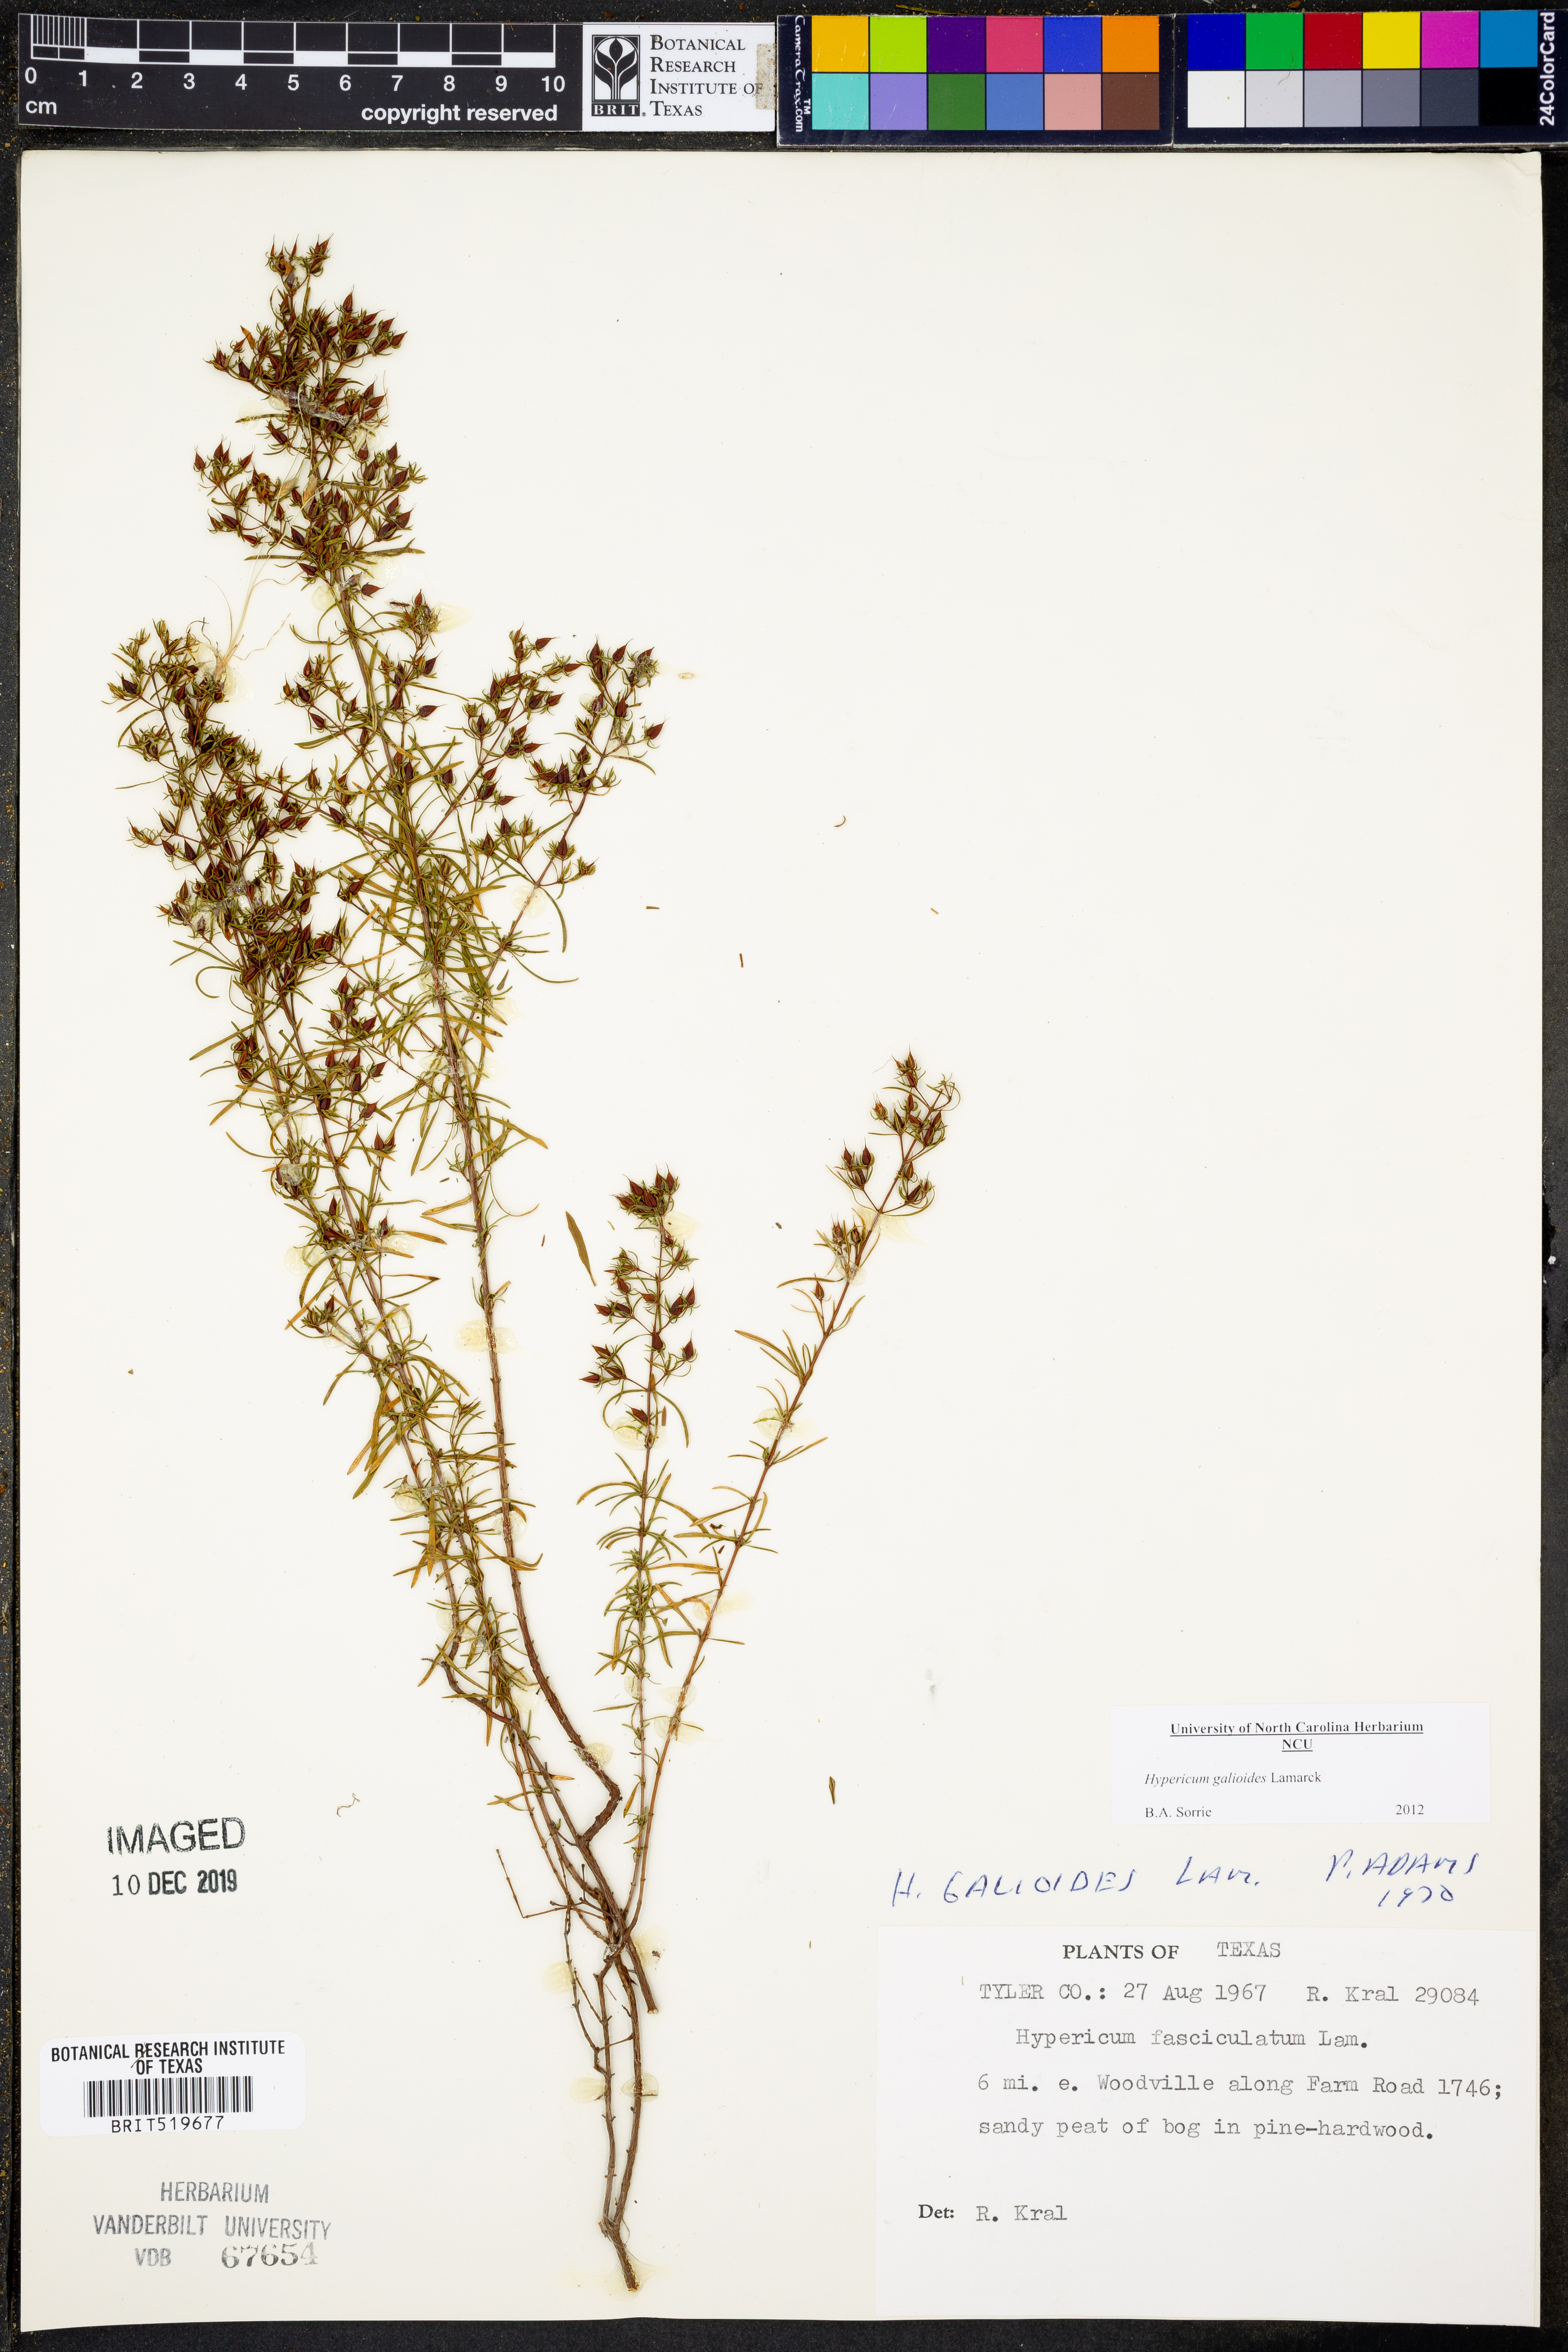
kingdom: Plantae
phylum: Tracheophyta
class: Magnoliopsida
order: Malpighiales
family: Hypericaceae
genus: Hypericum
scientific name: Hypericum galioides
